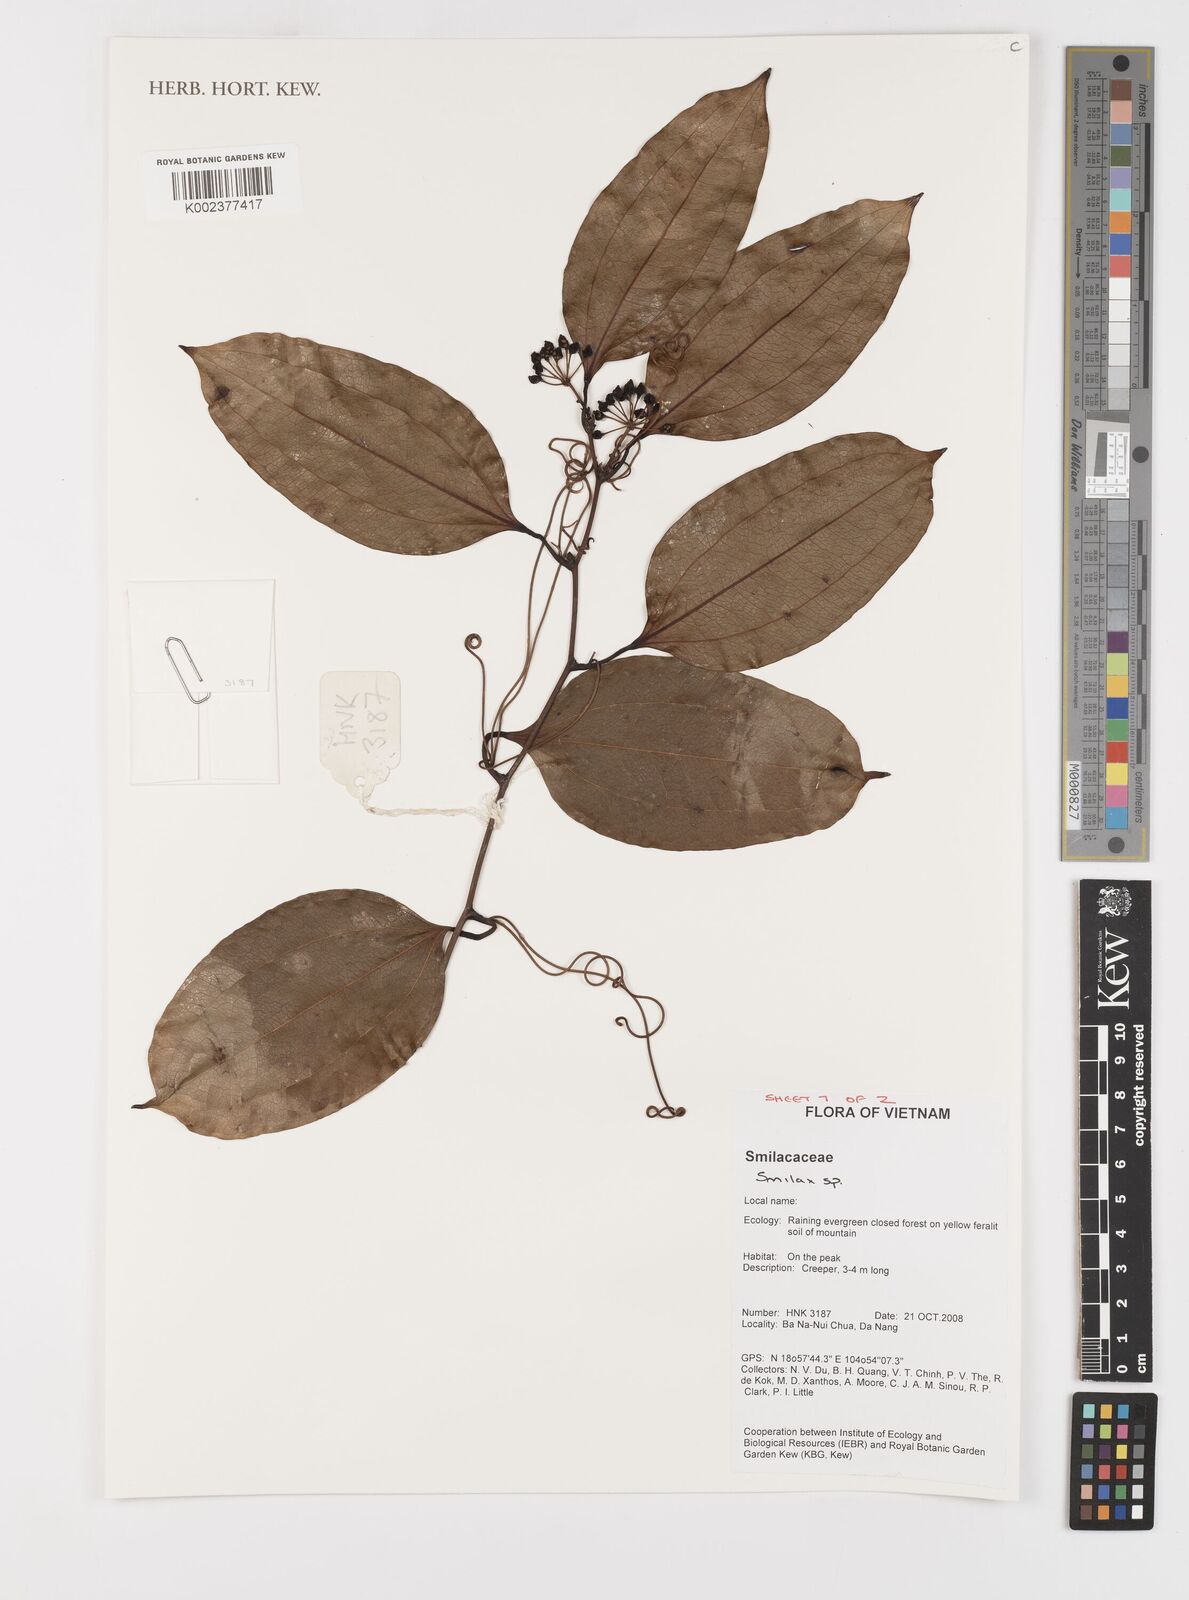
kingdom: Plantae
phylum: Tracheophyta
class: Liliopsida
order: Liliales
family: Smilacaceae
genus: Smilax
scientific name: Smilax
